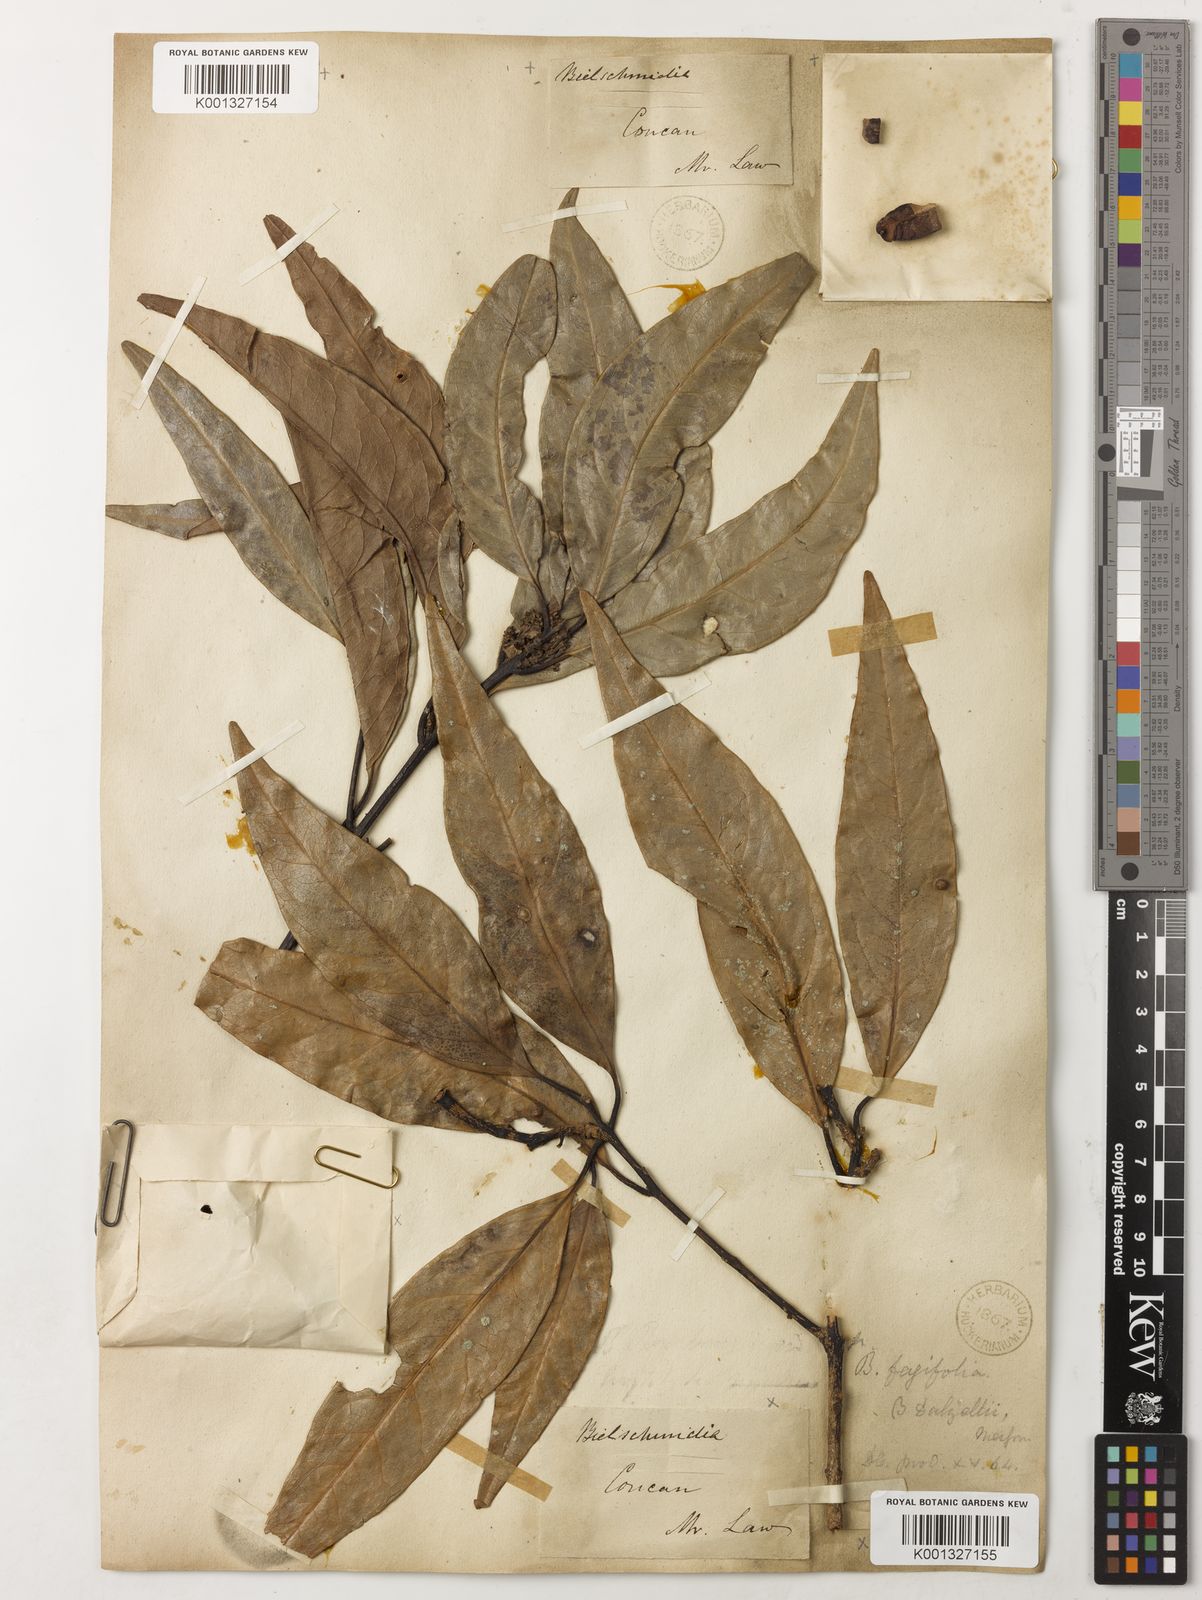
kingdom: Plantae
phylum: Tracheophyta
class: Magnoliopsida
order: Laurales
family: Lauraceae
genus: Beilschmiedia
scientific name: Beilschmiedia dalzellii
